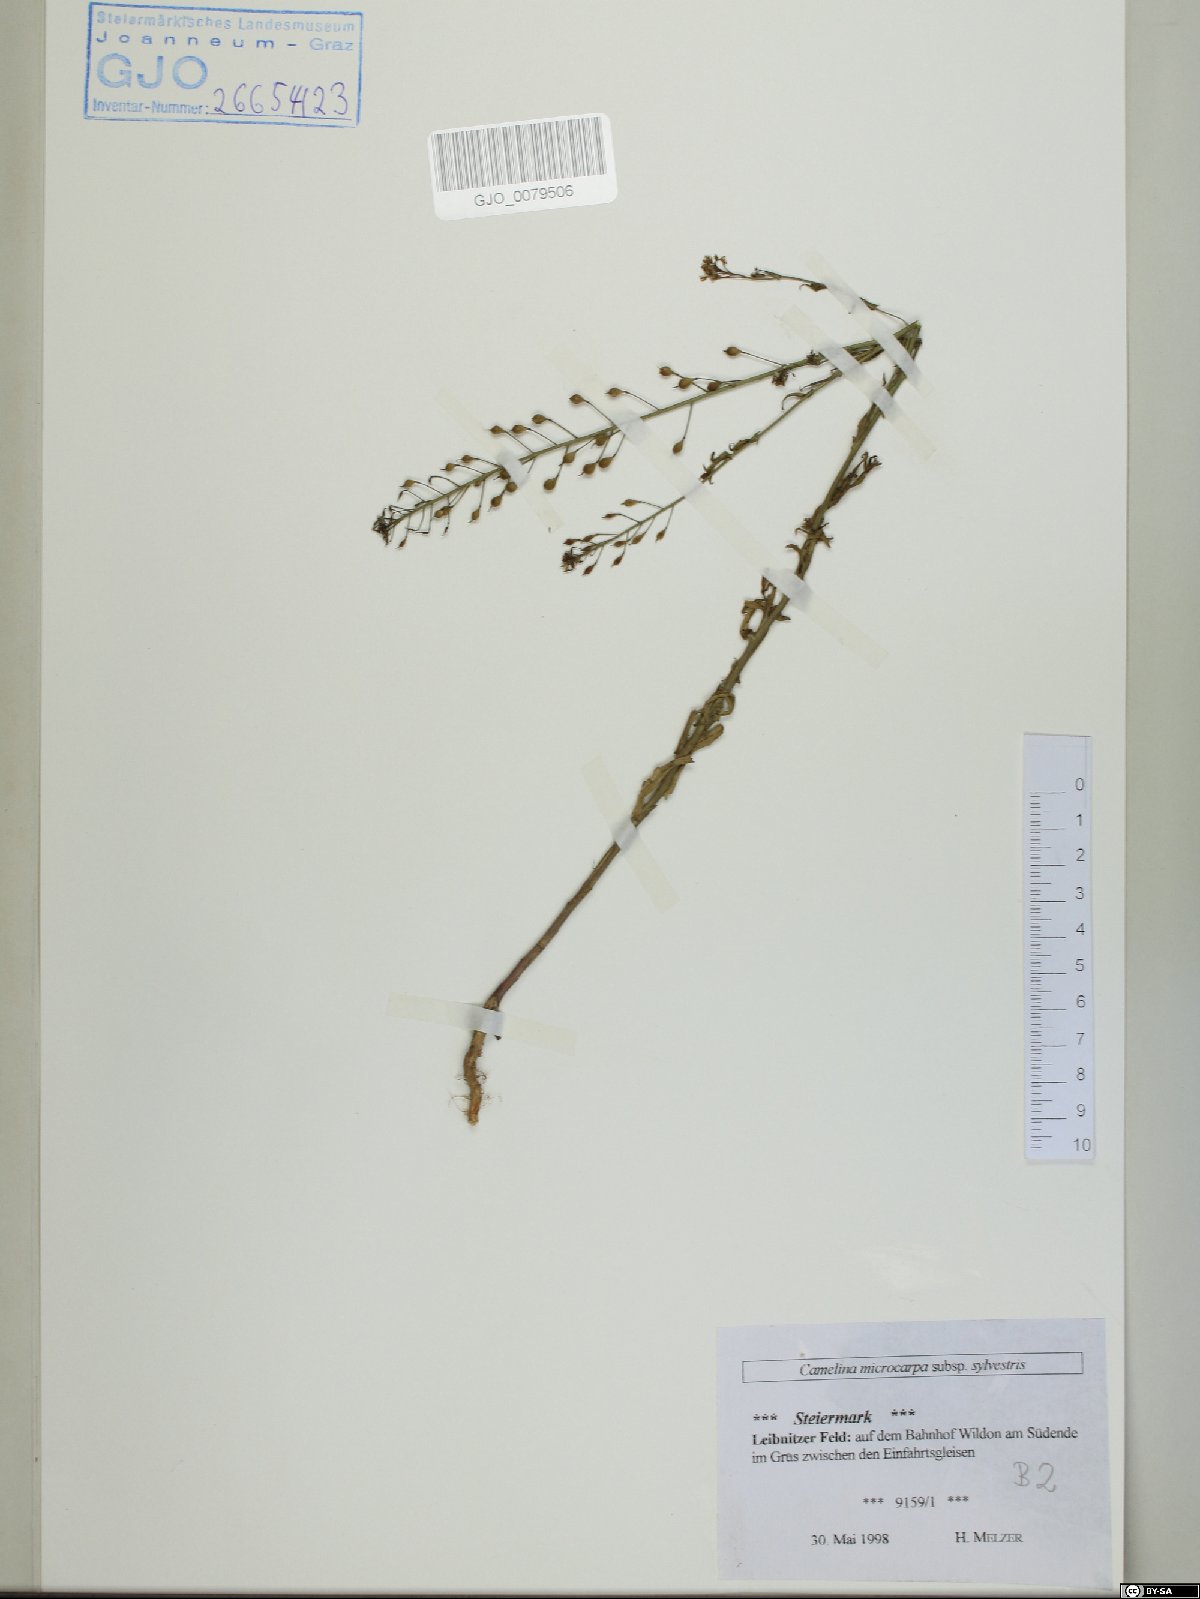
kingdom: Plantae
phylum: Tracheophyta
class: Magnoliopsida
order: Brassicales
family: Brassicaceae
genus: Camelina
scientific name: Camelina microcarpa
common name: Lesser gold-of-pleasure
